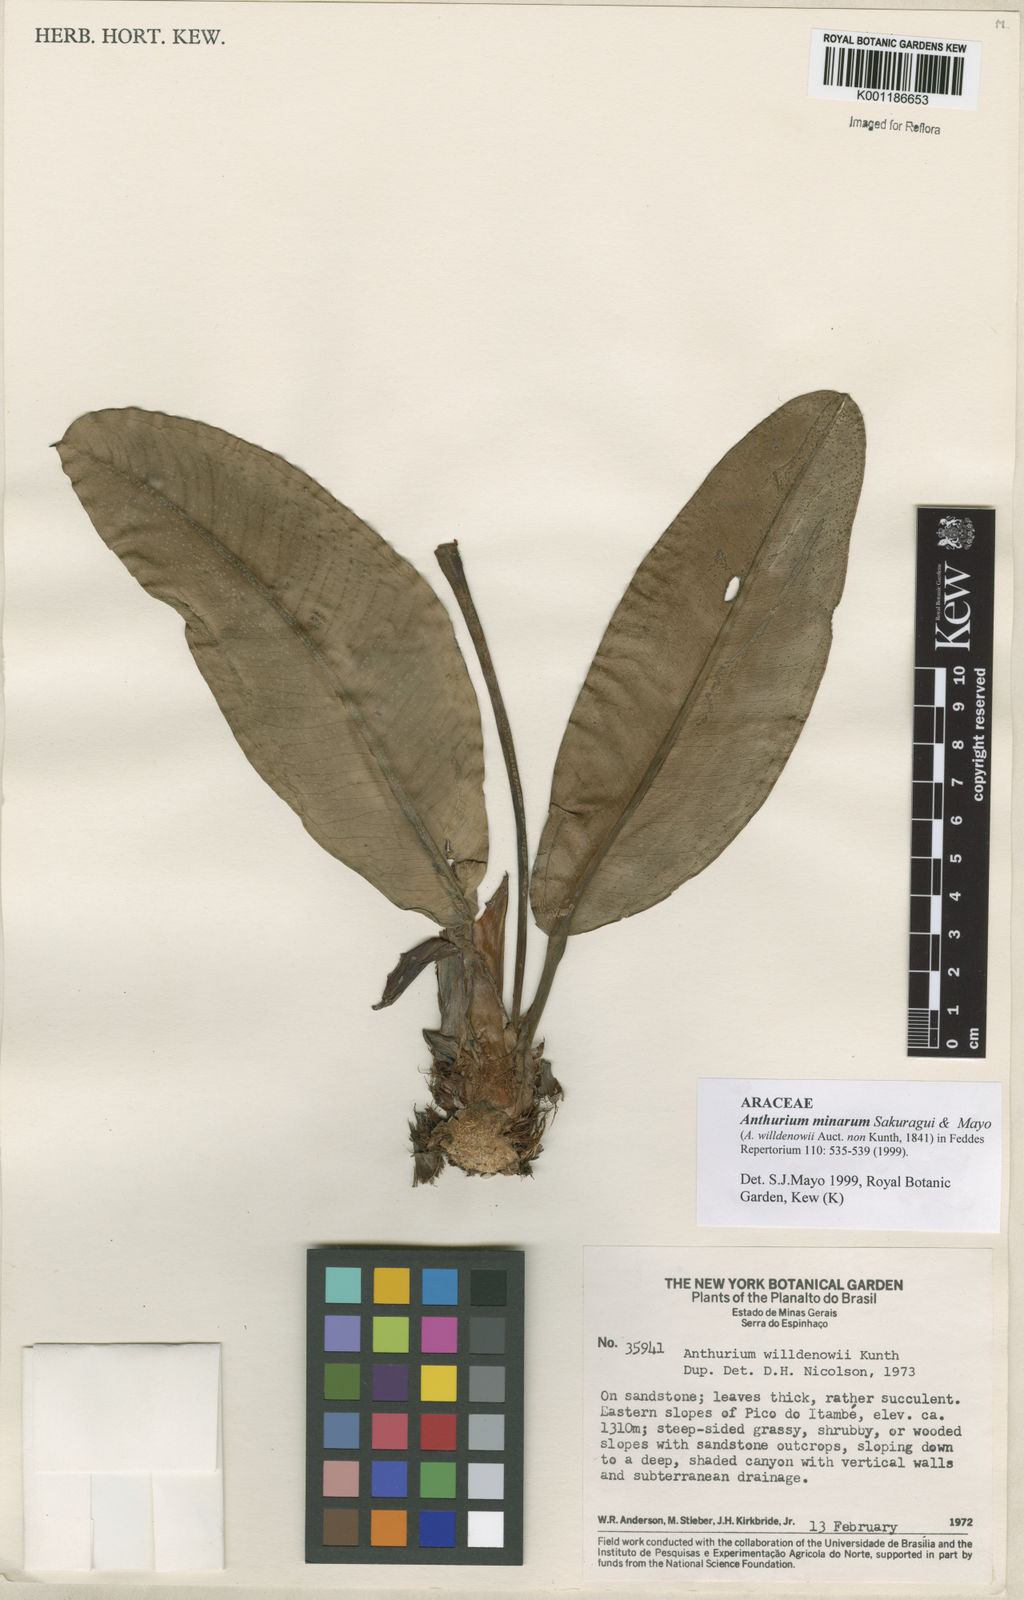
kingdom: Plantae
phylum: Tracheophyta
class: Liliopsida
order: Alismatales
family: Araceae
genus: Anthurium
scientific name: Anthurium minarum
